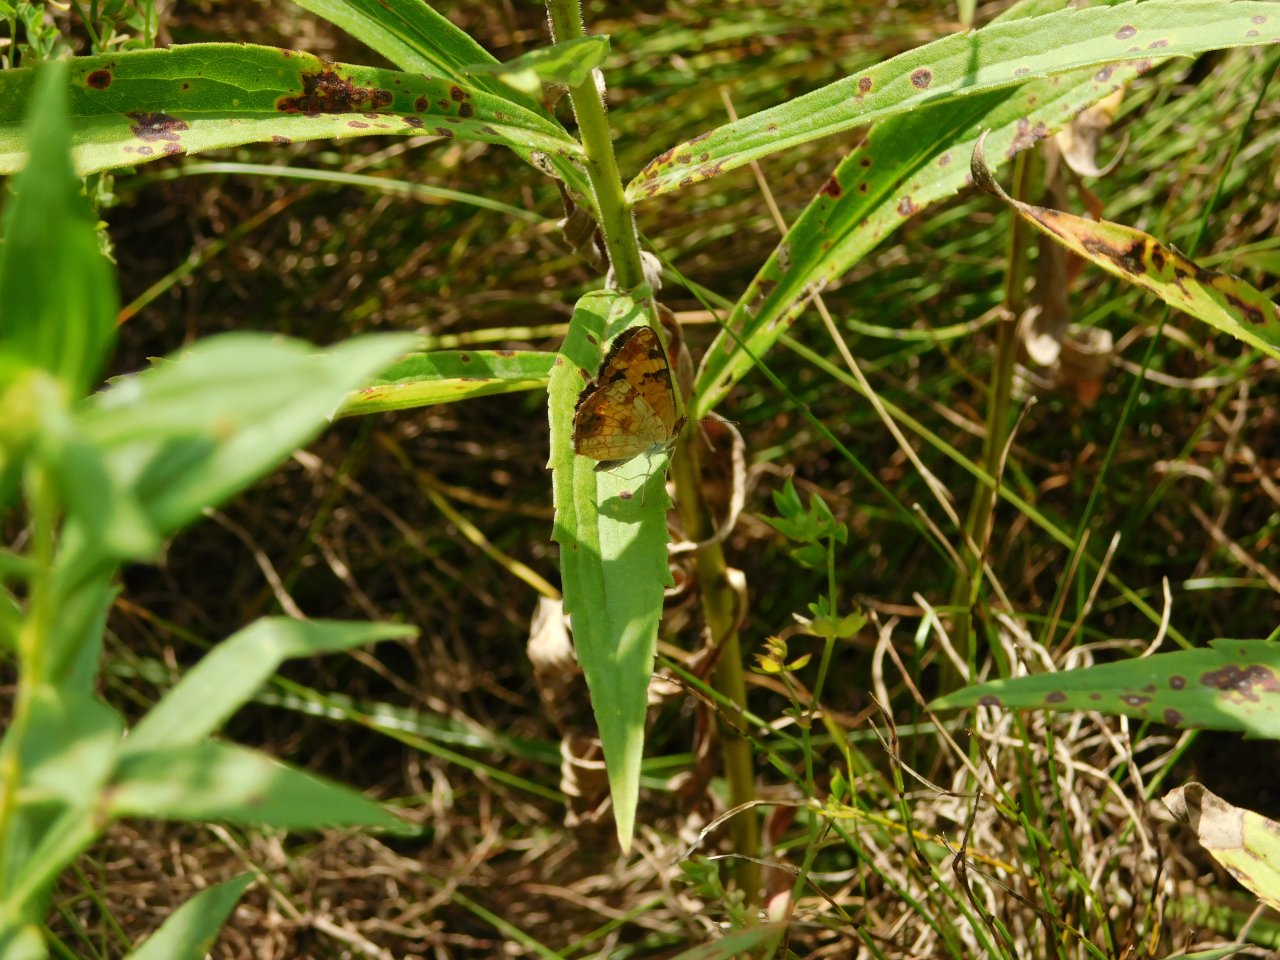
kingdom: Animalia
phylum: Arthropoda
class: Insecta
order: Lepidoptera
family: Nymphalidae
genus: Phyciodes
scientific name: Phyciodes tharos
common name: Northern Crescent
